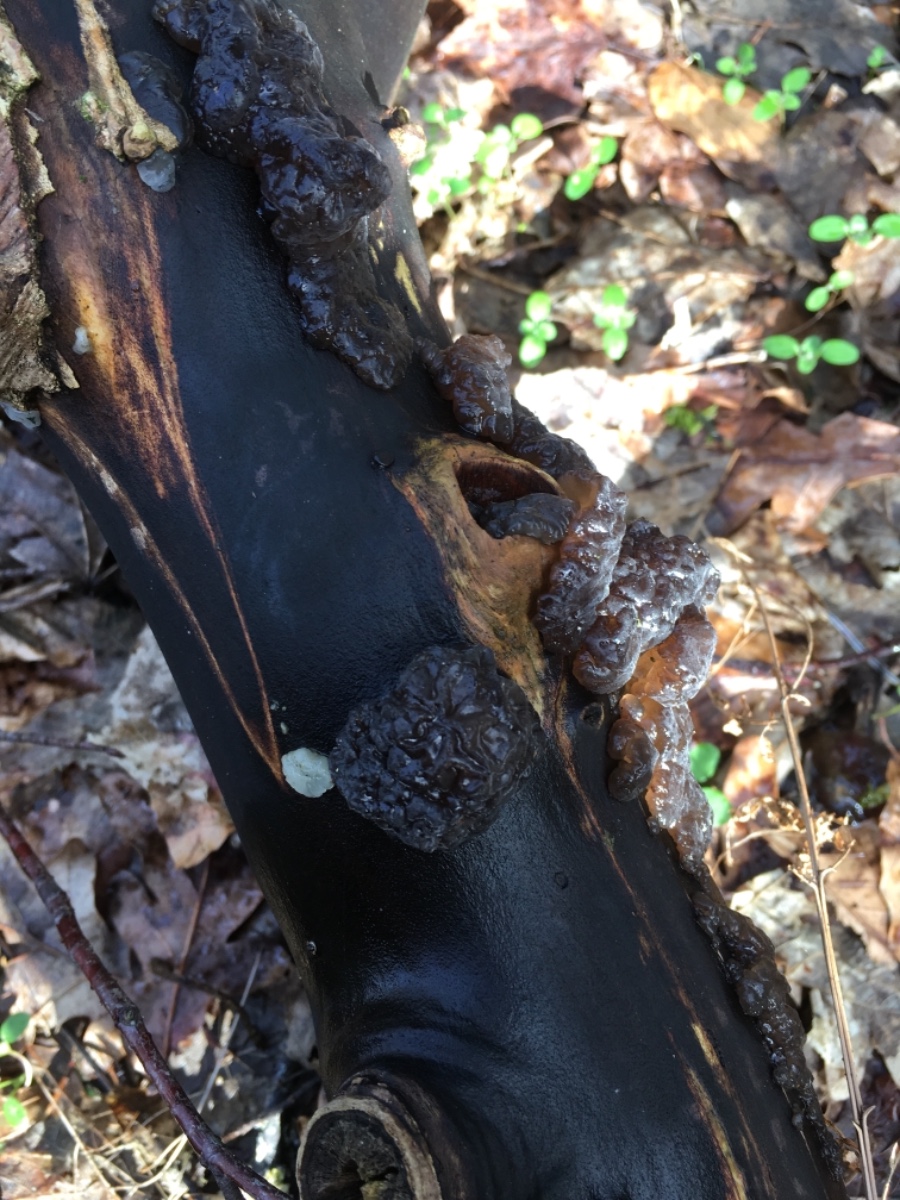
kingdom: Fungi
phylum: Basidiomycota
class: Agaricomycetes
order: Auriculariales
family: Auriculariaceae
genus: Exidia
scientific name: Exidia nigricans
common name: almindelig bævretop
